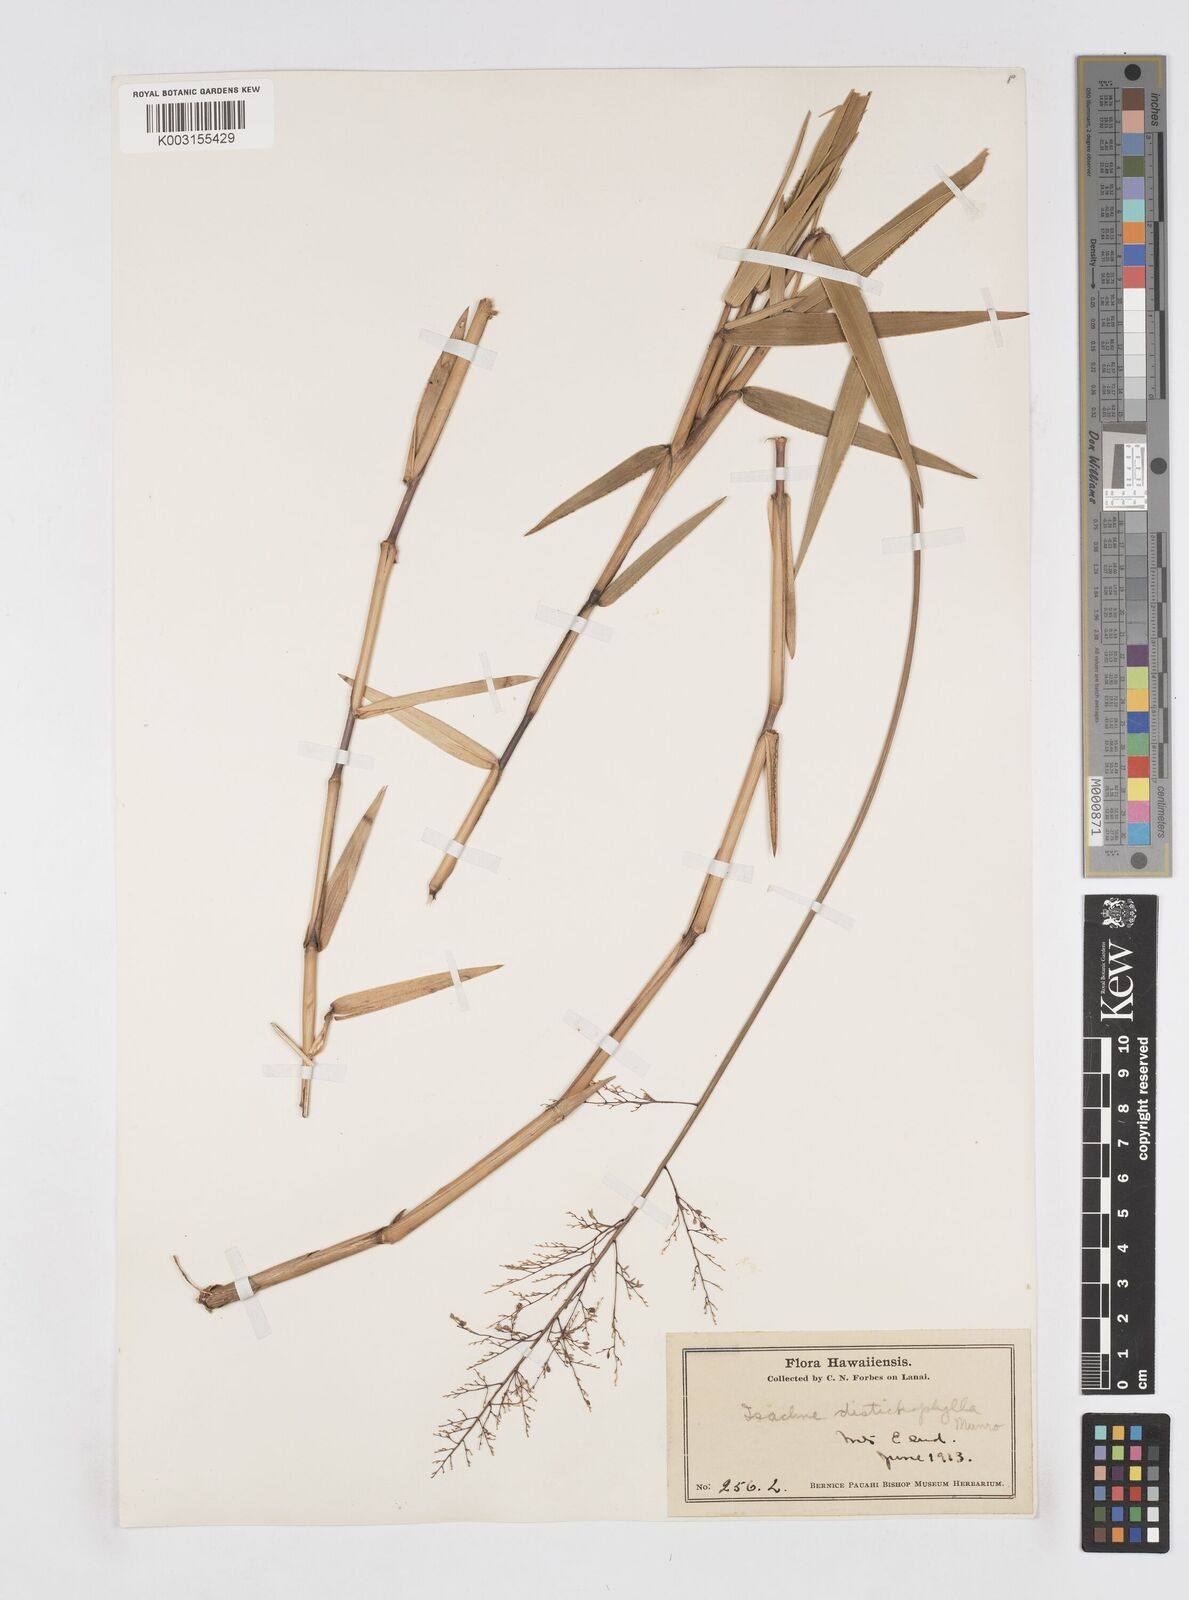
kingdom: Plantae
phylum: Tracheophyta
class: Liliopsida
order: Poales
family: Poaceae
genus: Isachne
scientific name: Isachne distichophylla
